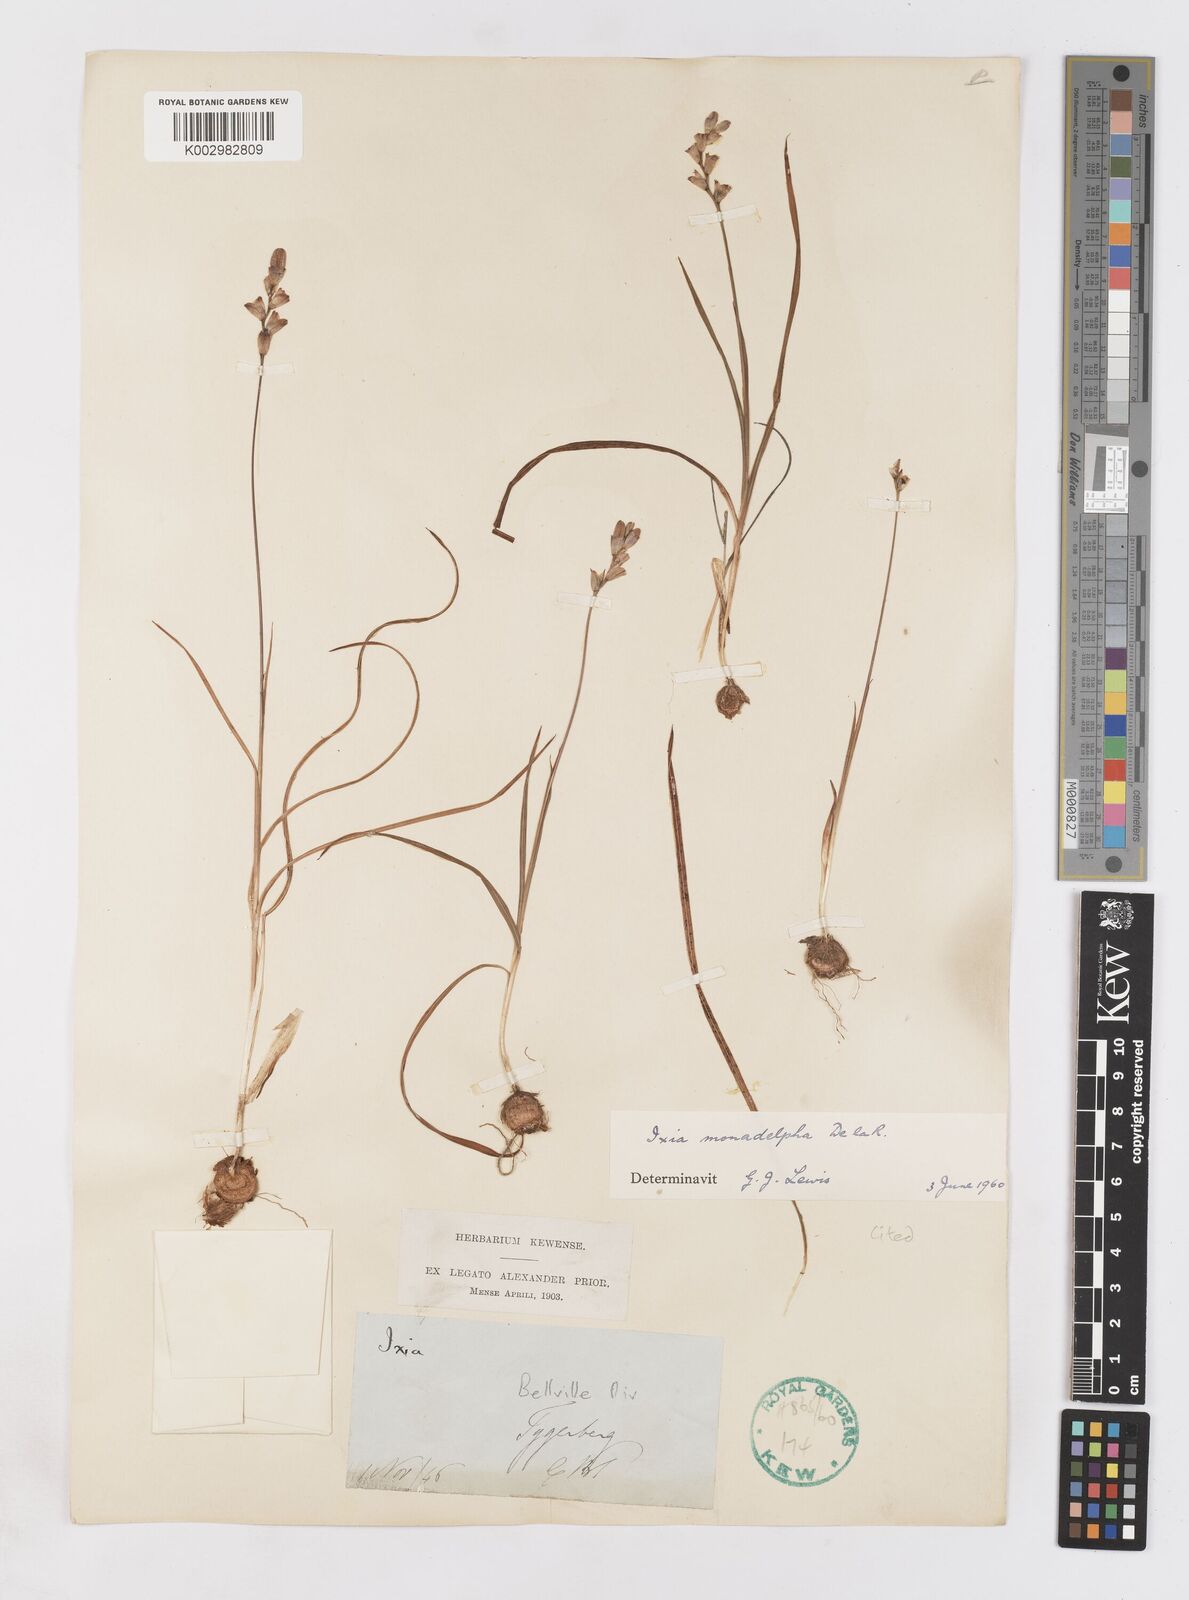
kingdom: Plantae
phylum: Tracheophyta
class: Liliopsida
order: Asparagales
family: Iridaceae
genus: Ixia
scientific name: Ixia monadelpha
